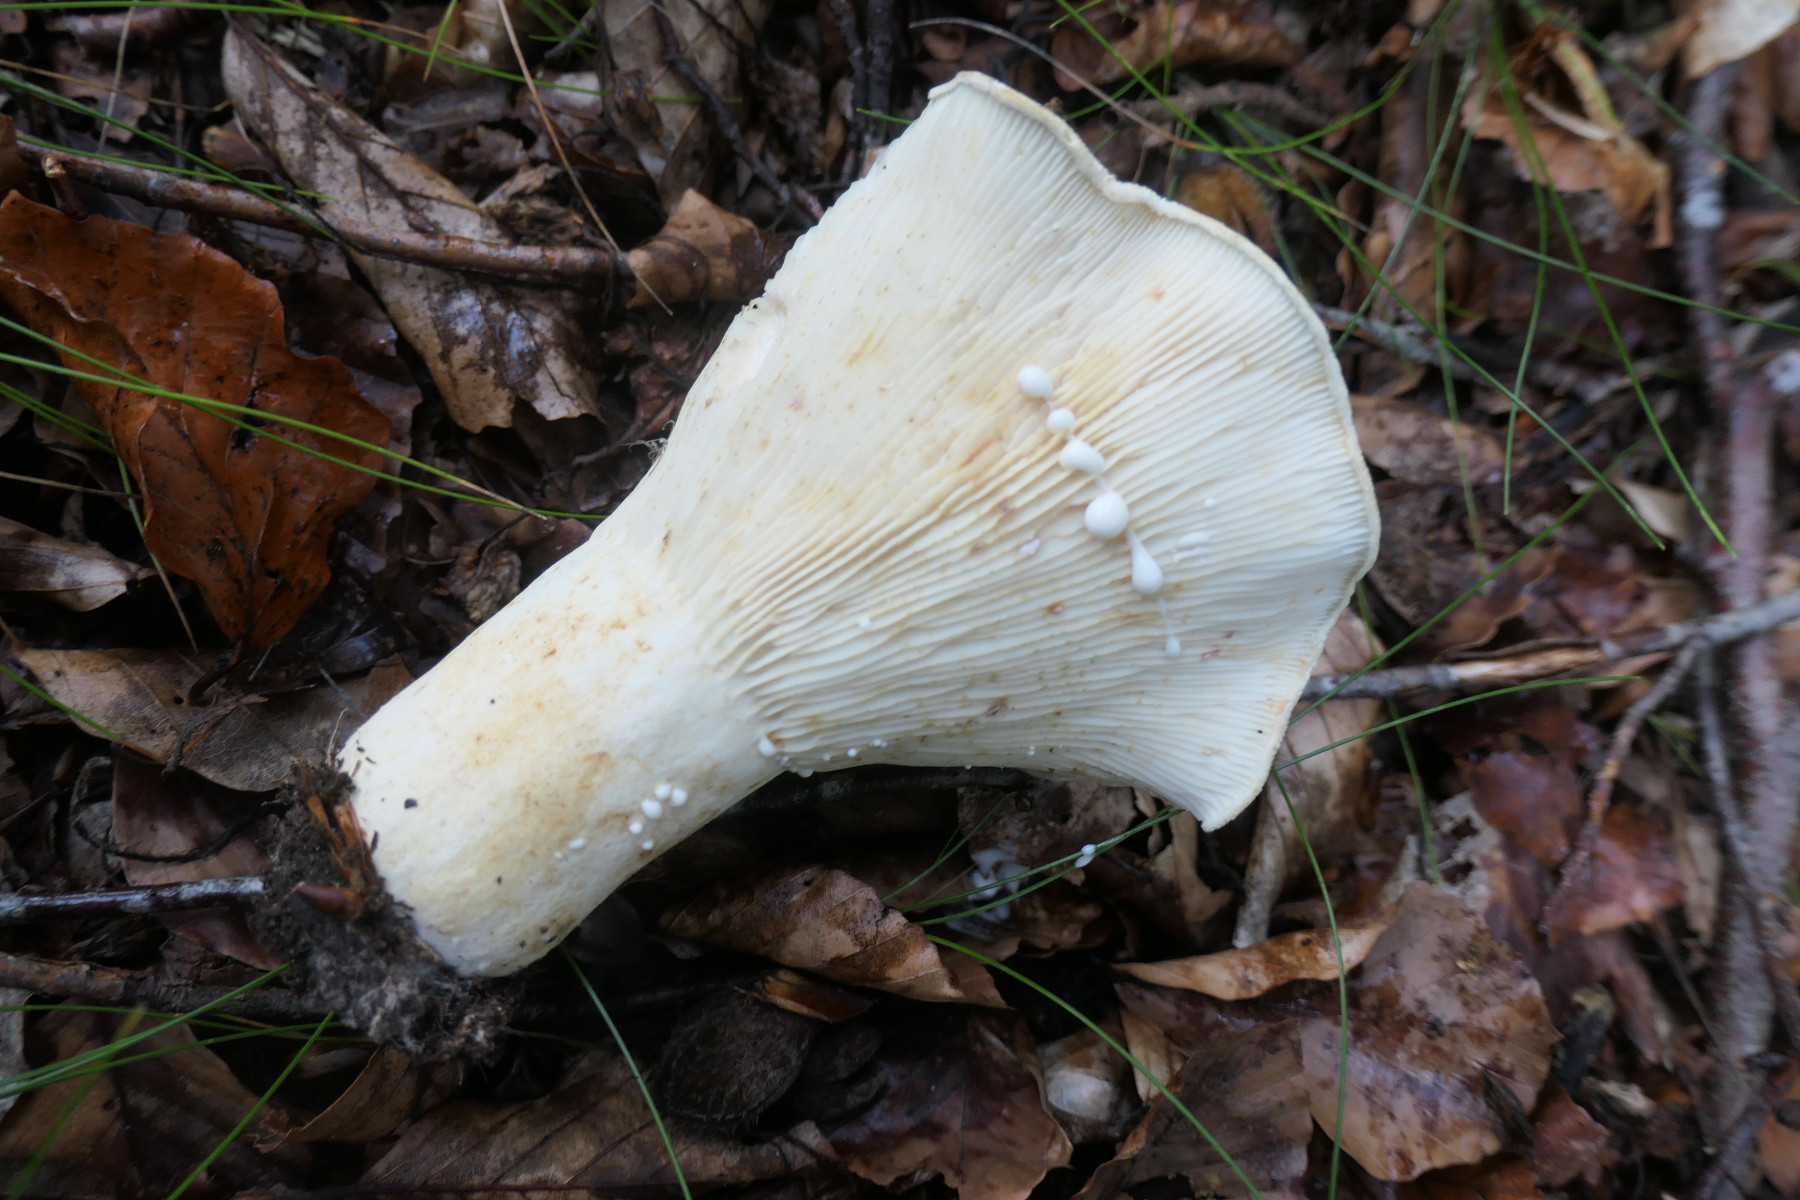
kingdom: Fungi
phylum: Basidiomycota
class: Agaricomycetes
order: Russulales
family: Russulaceae
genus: Lactifluus
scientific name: Lactifluus vellereus
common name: hvidfiltet mælkehat
